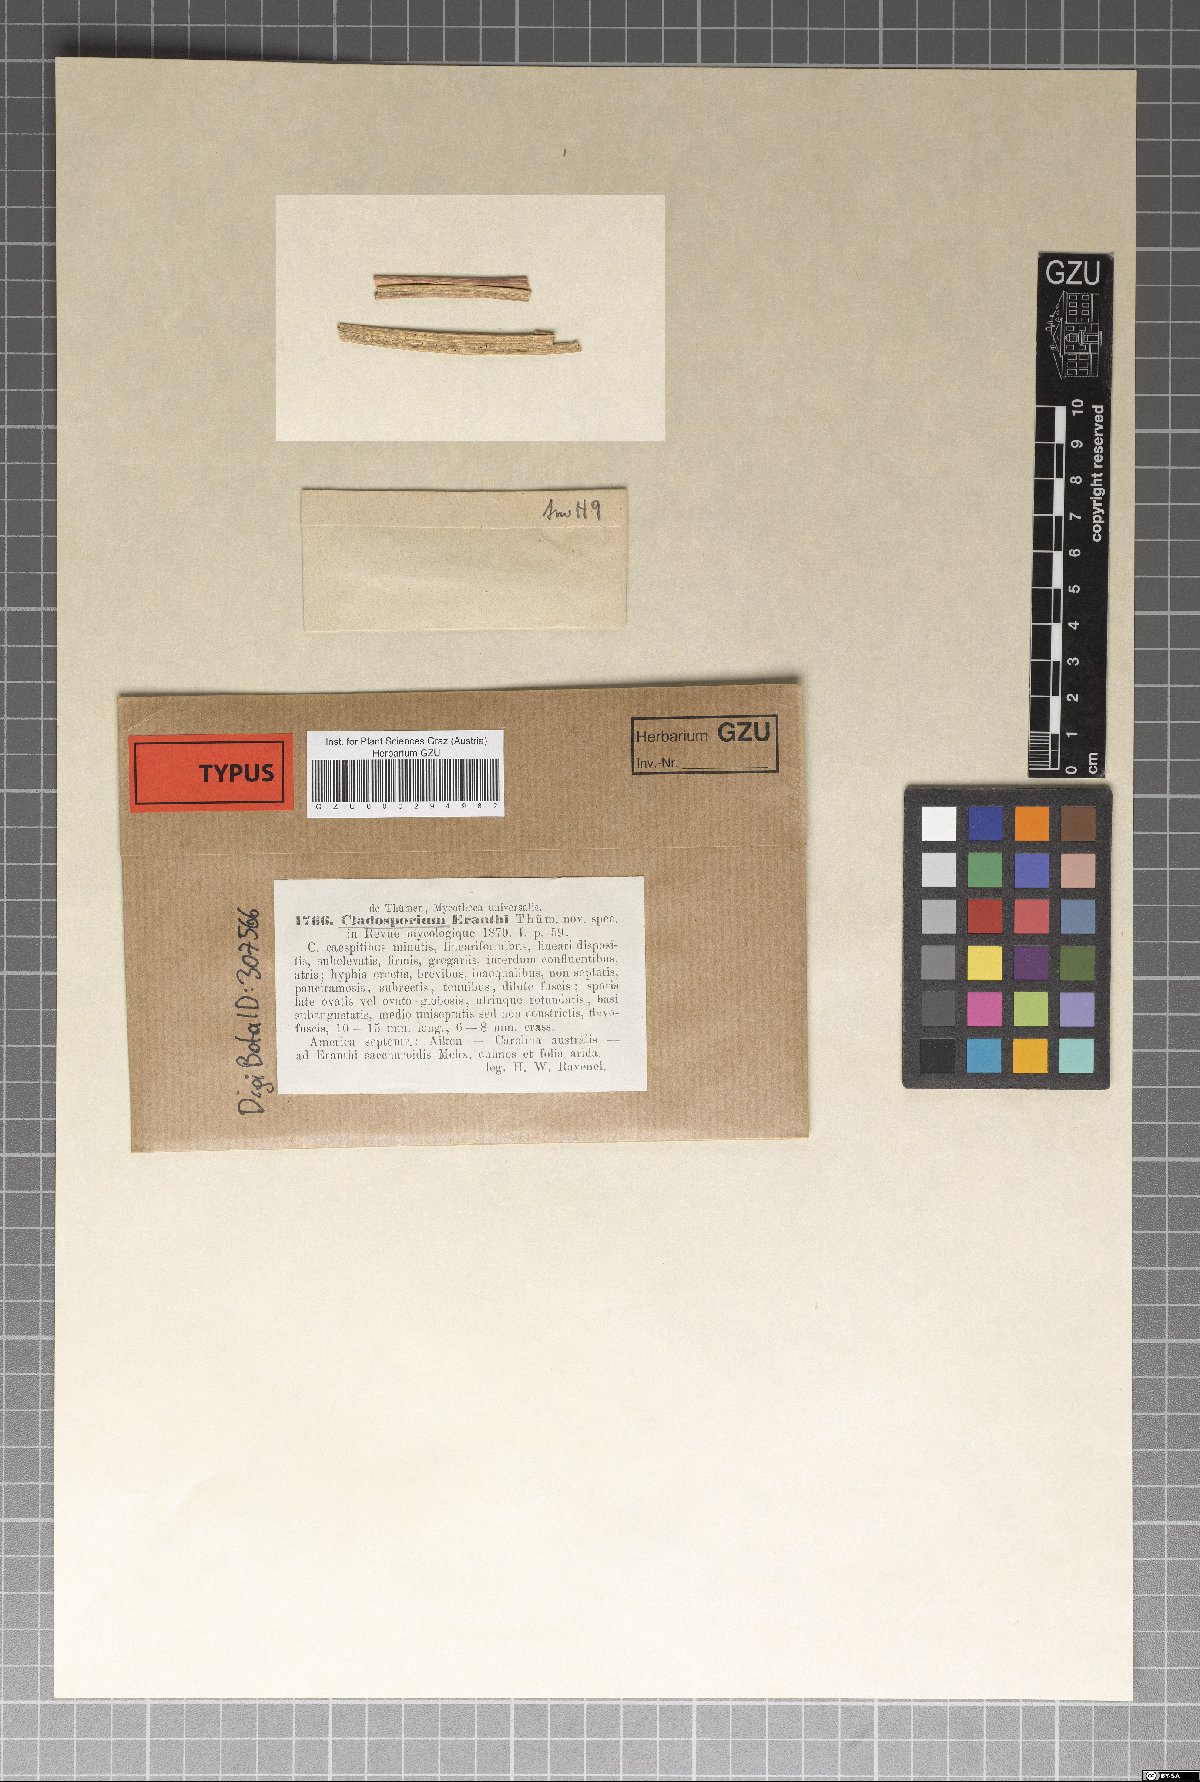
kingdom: Fungi
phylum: Ascomycota
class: Dothideomycetes
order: Capnodiales
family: Cladosporiaceae
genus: Cladosporium
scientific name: Cladosporium erianthi
